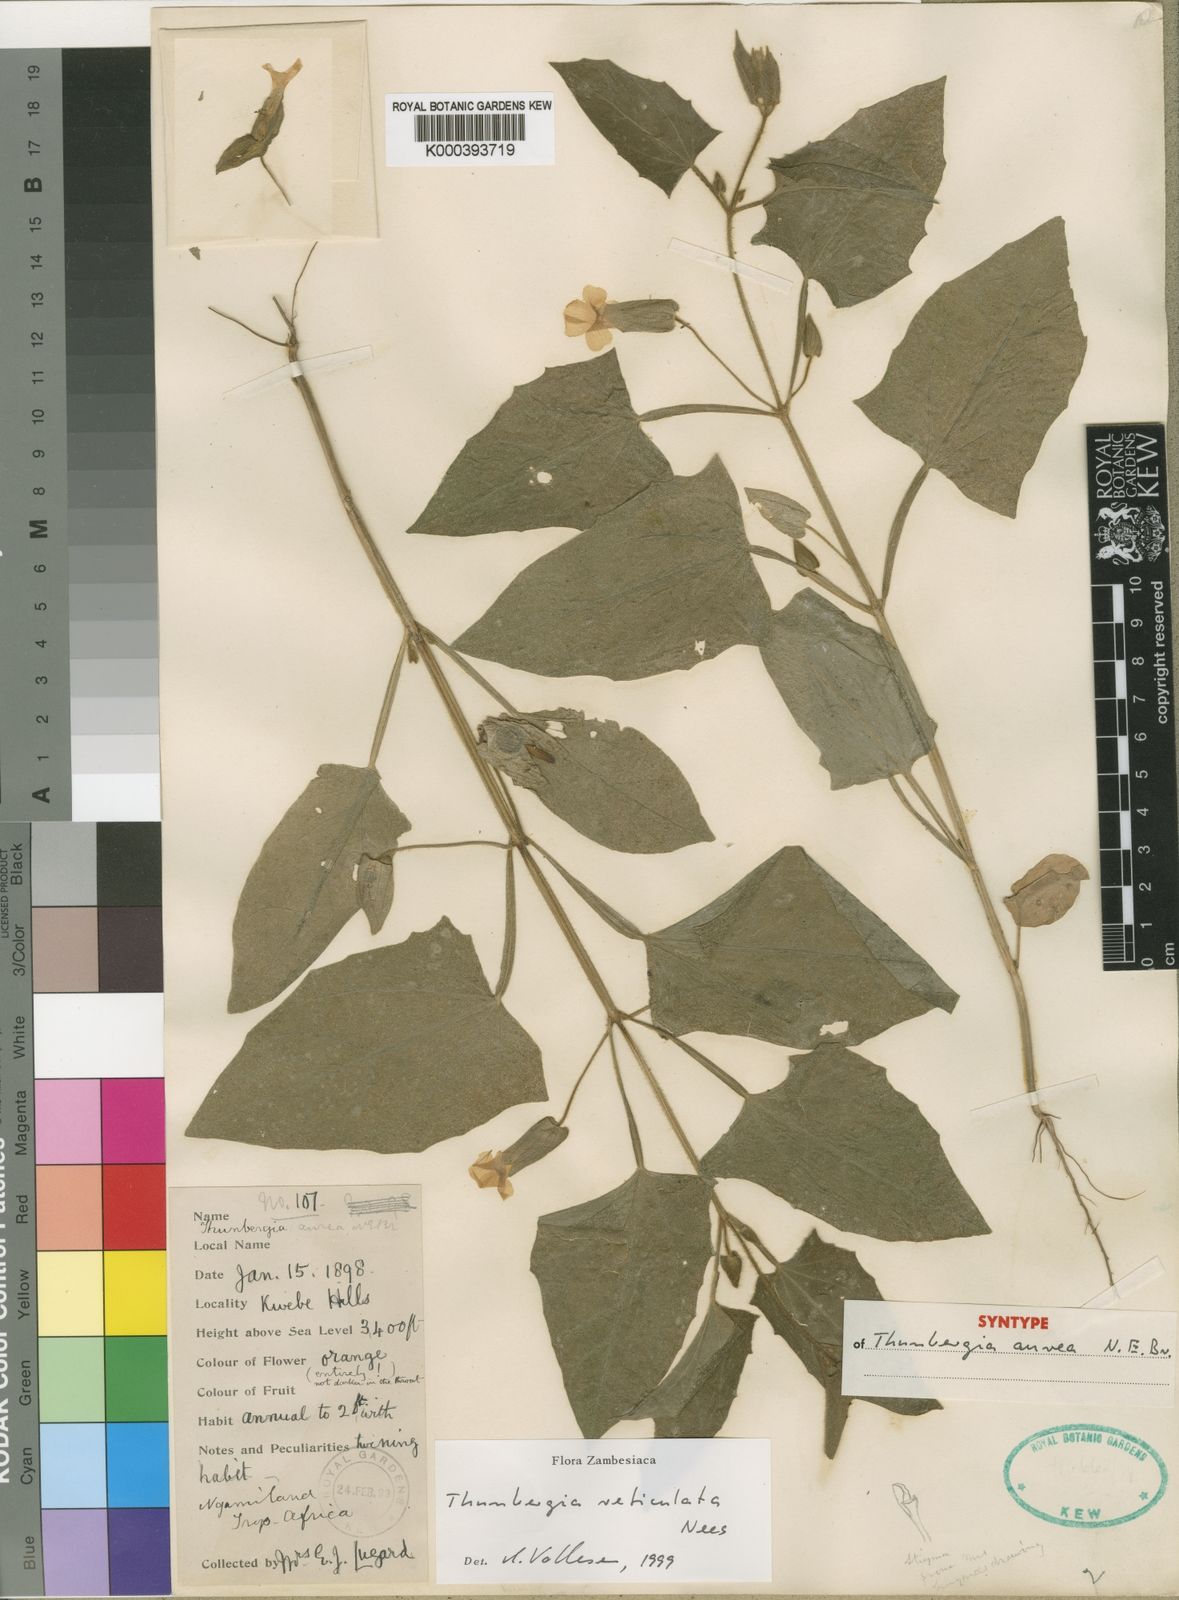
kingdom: Plantae
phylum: Tracheophyta
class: Magnoliopsida
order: Lamiales
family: Acanthaceae
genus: Thunbergia
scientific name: Thunbergia reticulata
